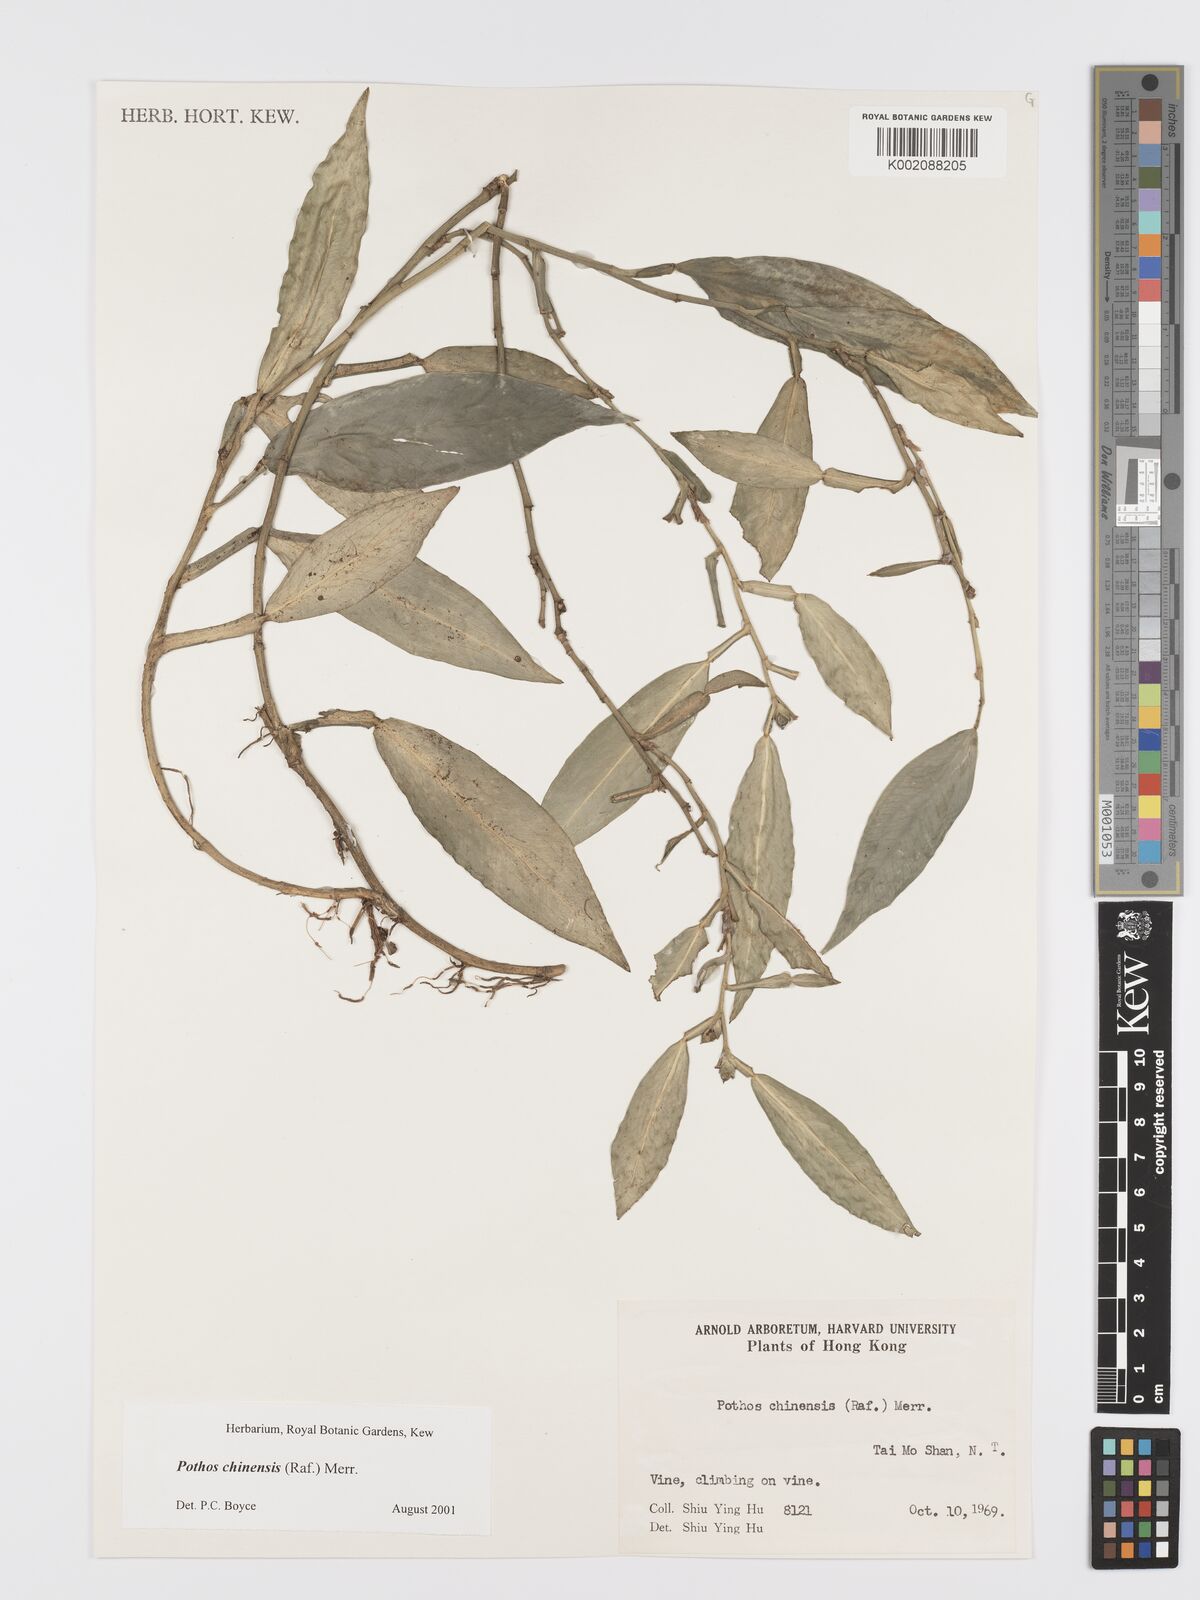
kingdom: Plantae
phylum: Tracheophyta
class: Liliopsida
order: Alismatales
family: Araceae
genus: Pothos
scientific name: Pothos chinensis
